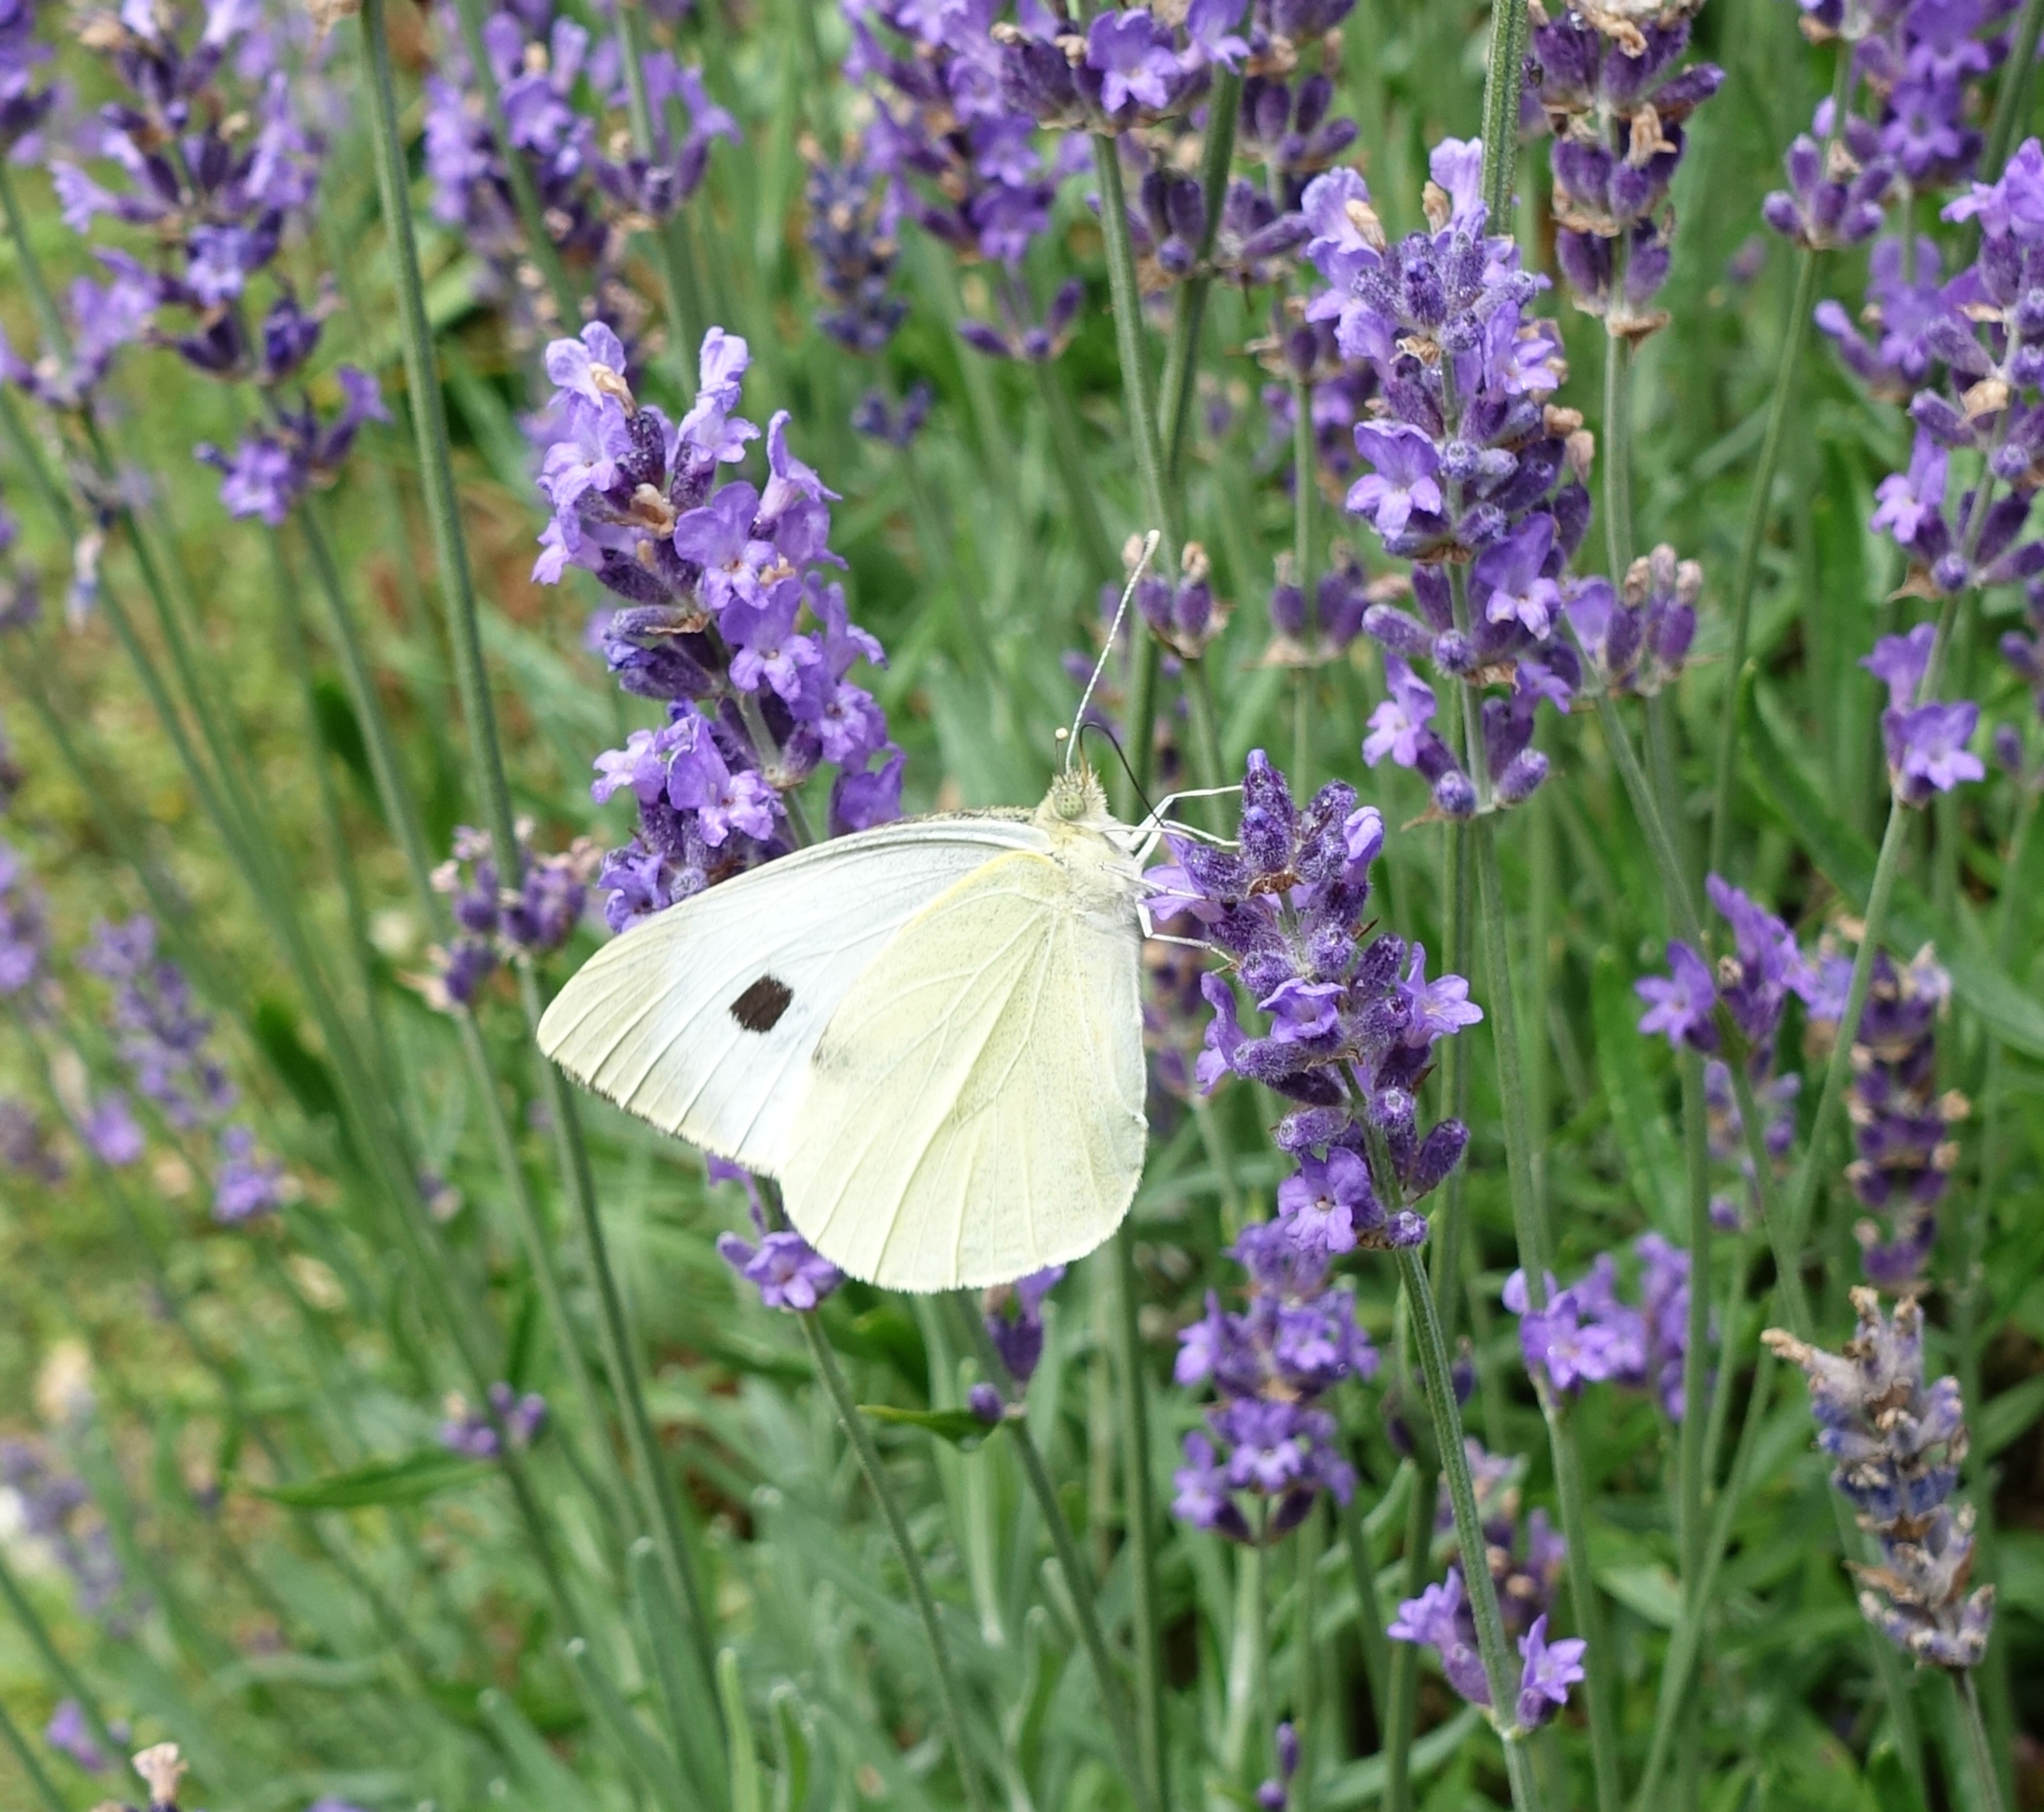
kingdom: Animalia
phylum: Arthropoda
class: Insecta
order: Lepidoptera
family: Pieridae
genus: Pieris
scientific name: Pieris brassicae
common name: Stor kålsommerfugl
